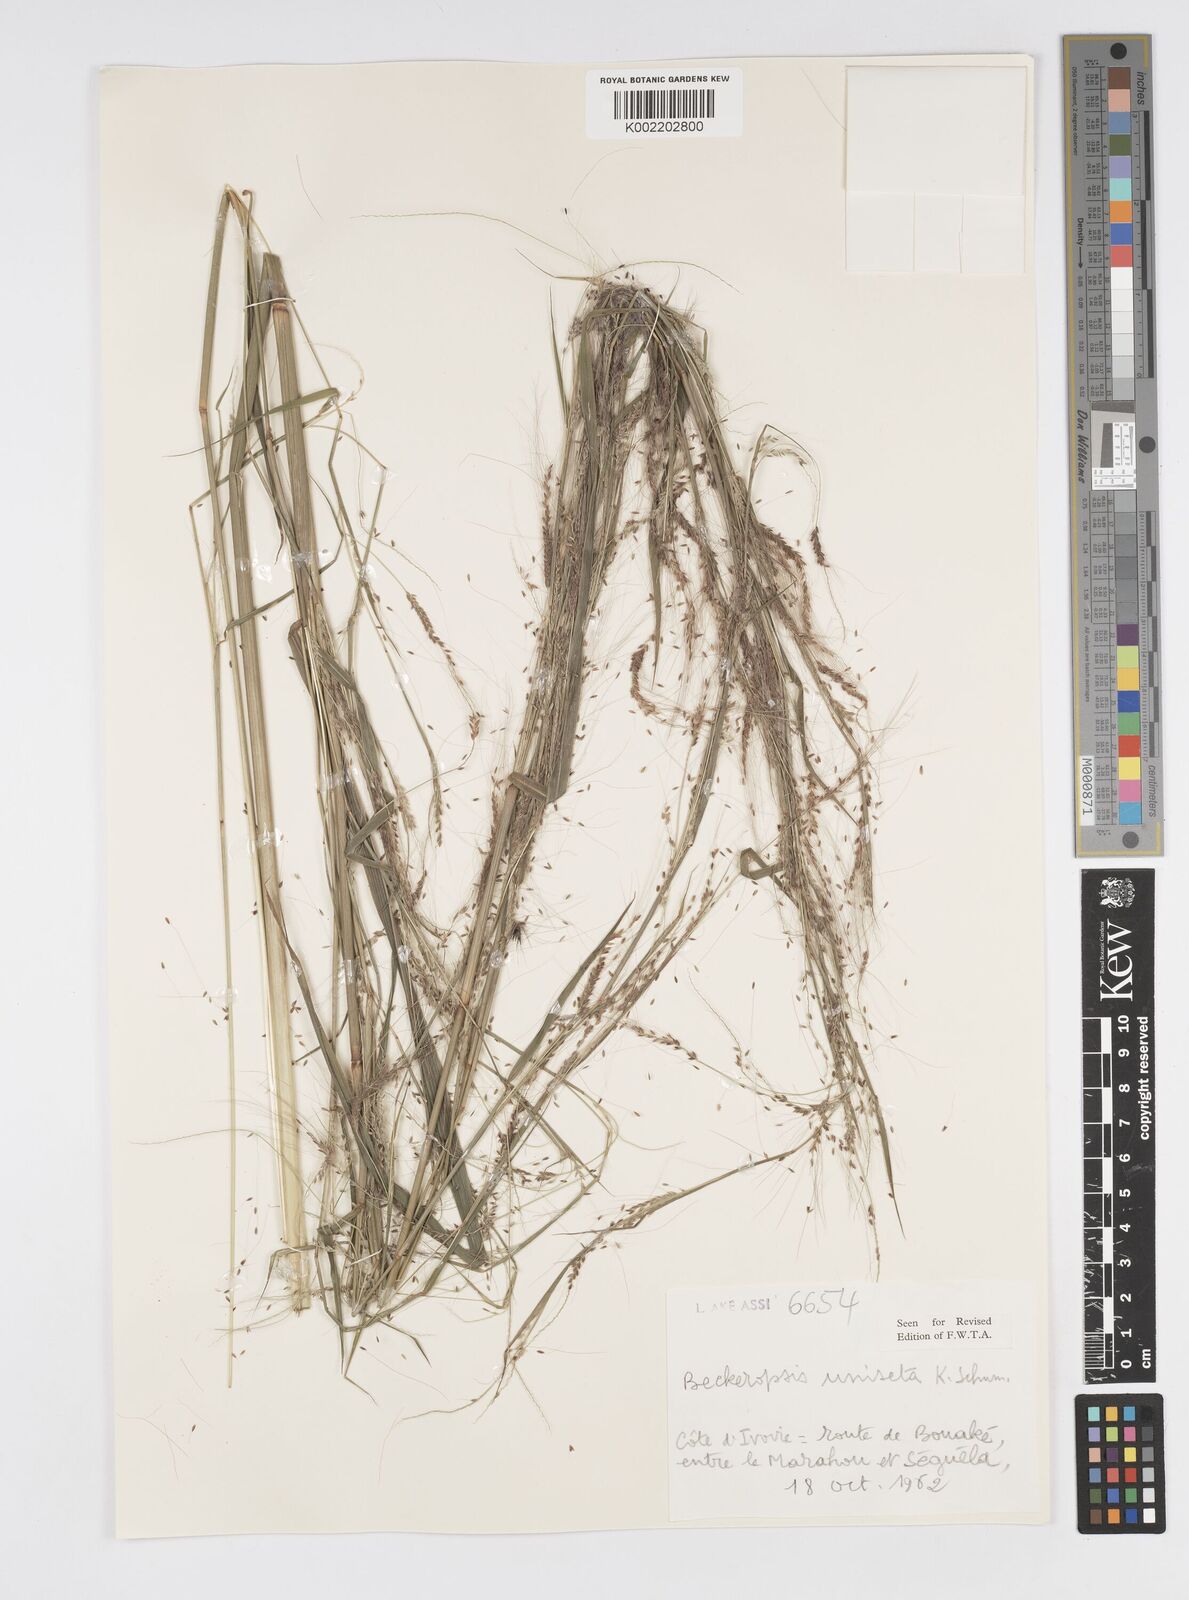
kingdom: Plantae
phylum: Tracheophyta
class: Liliopsida
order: Poales
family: Poaceae
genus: Cenchrus
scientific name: Cenchrus unisetus
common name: Natal grass
